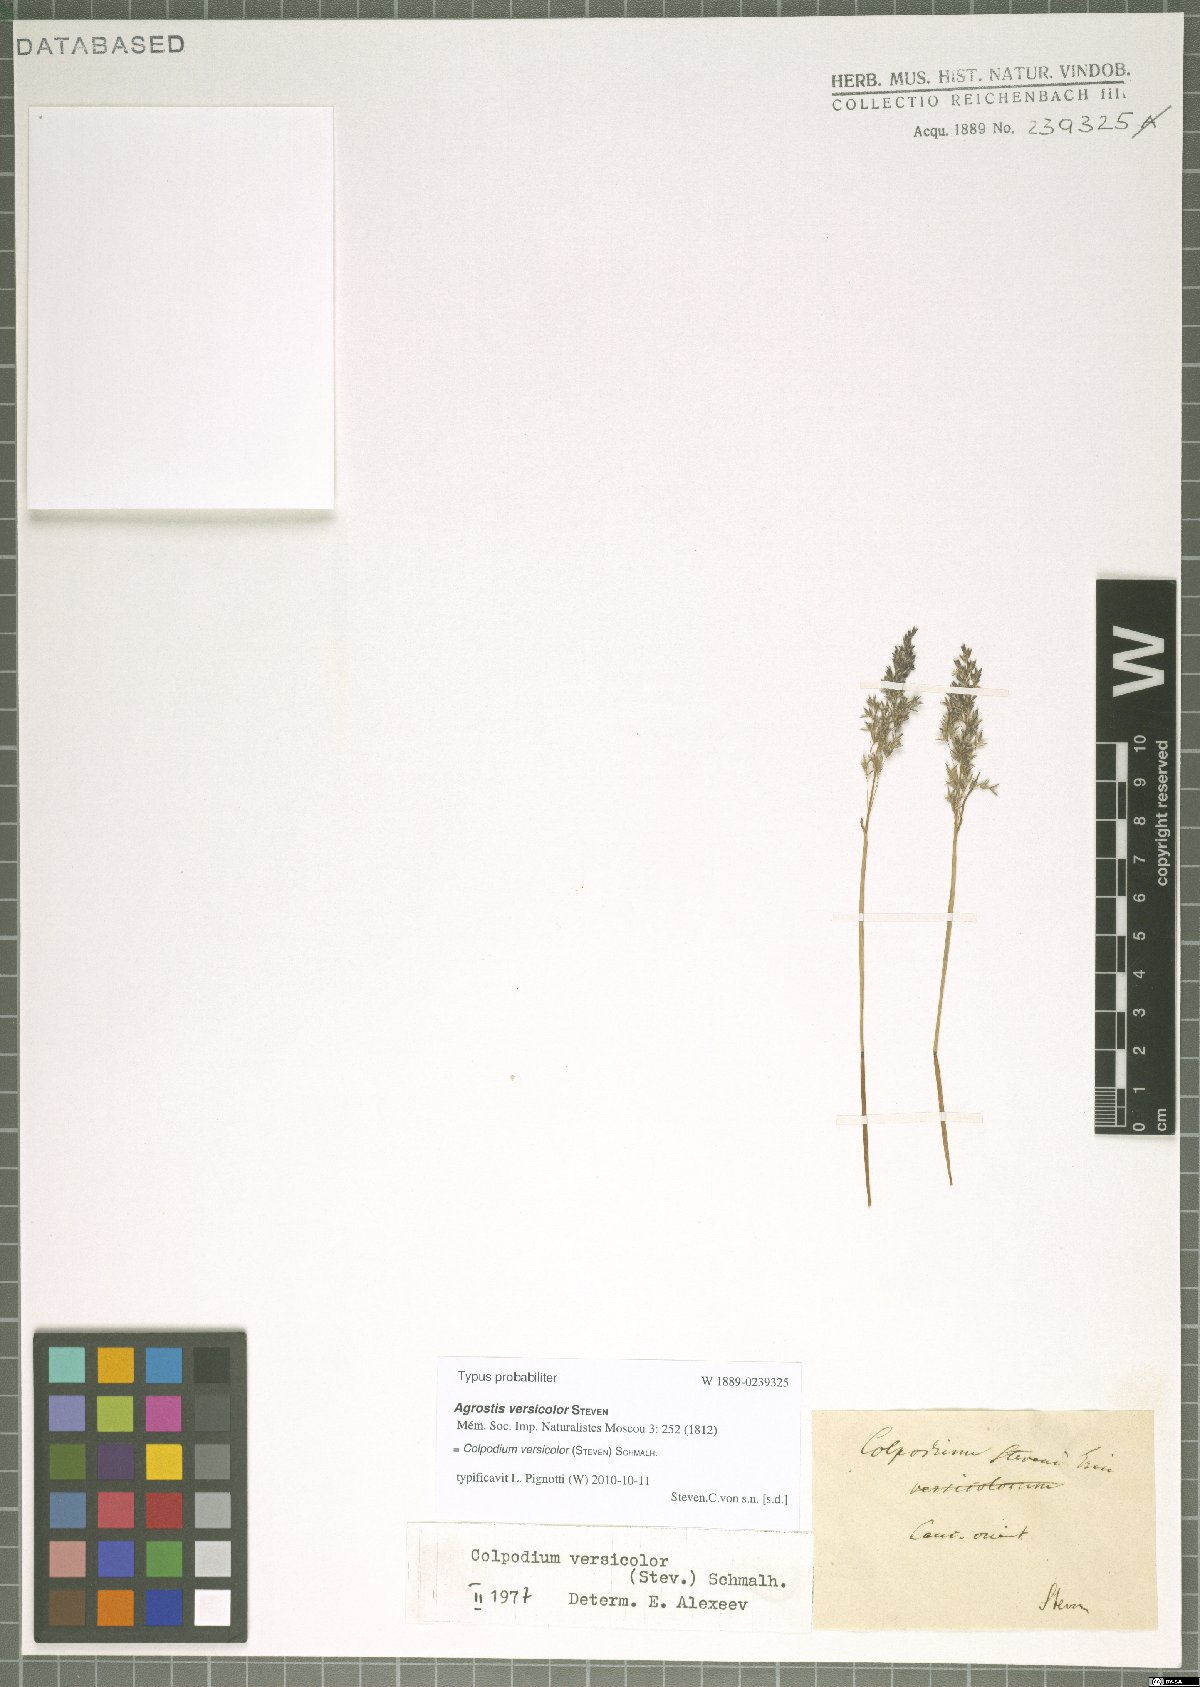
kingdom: Plantae
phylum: Tracheophyta
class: Liliopsida
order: Poales
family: Poaceae
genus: Colpodium
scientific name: Colpodium versicolor
